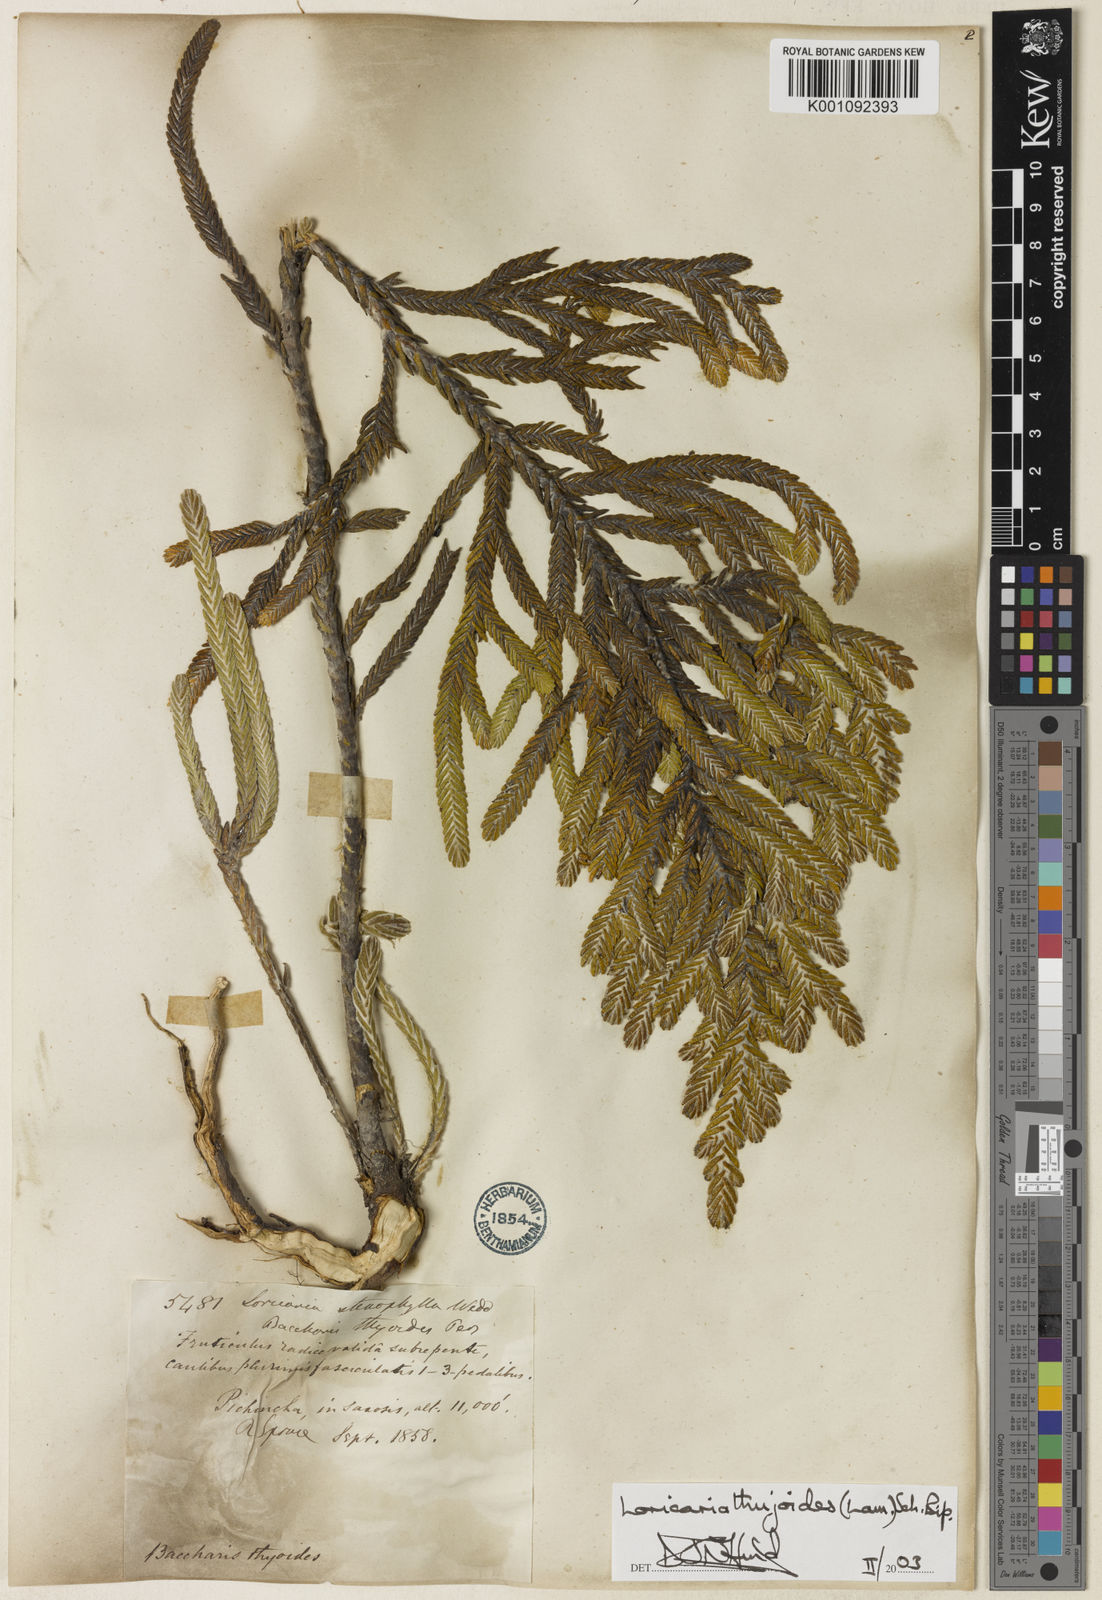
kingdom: Plantae
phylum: Tracheophyta
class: Magnoliopsida
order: Asterales
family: Asteraceae
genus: Andicolea
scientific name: Andicolea thuyoides
